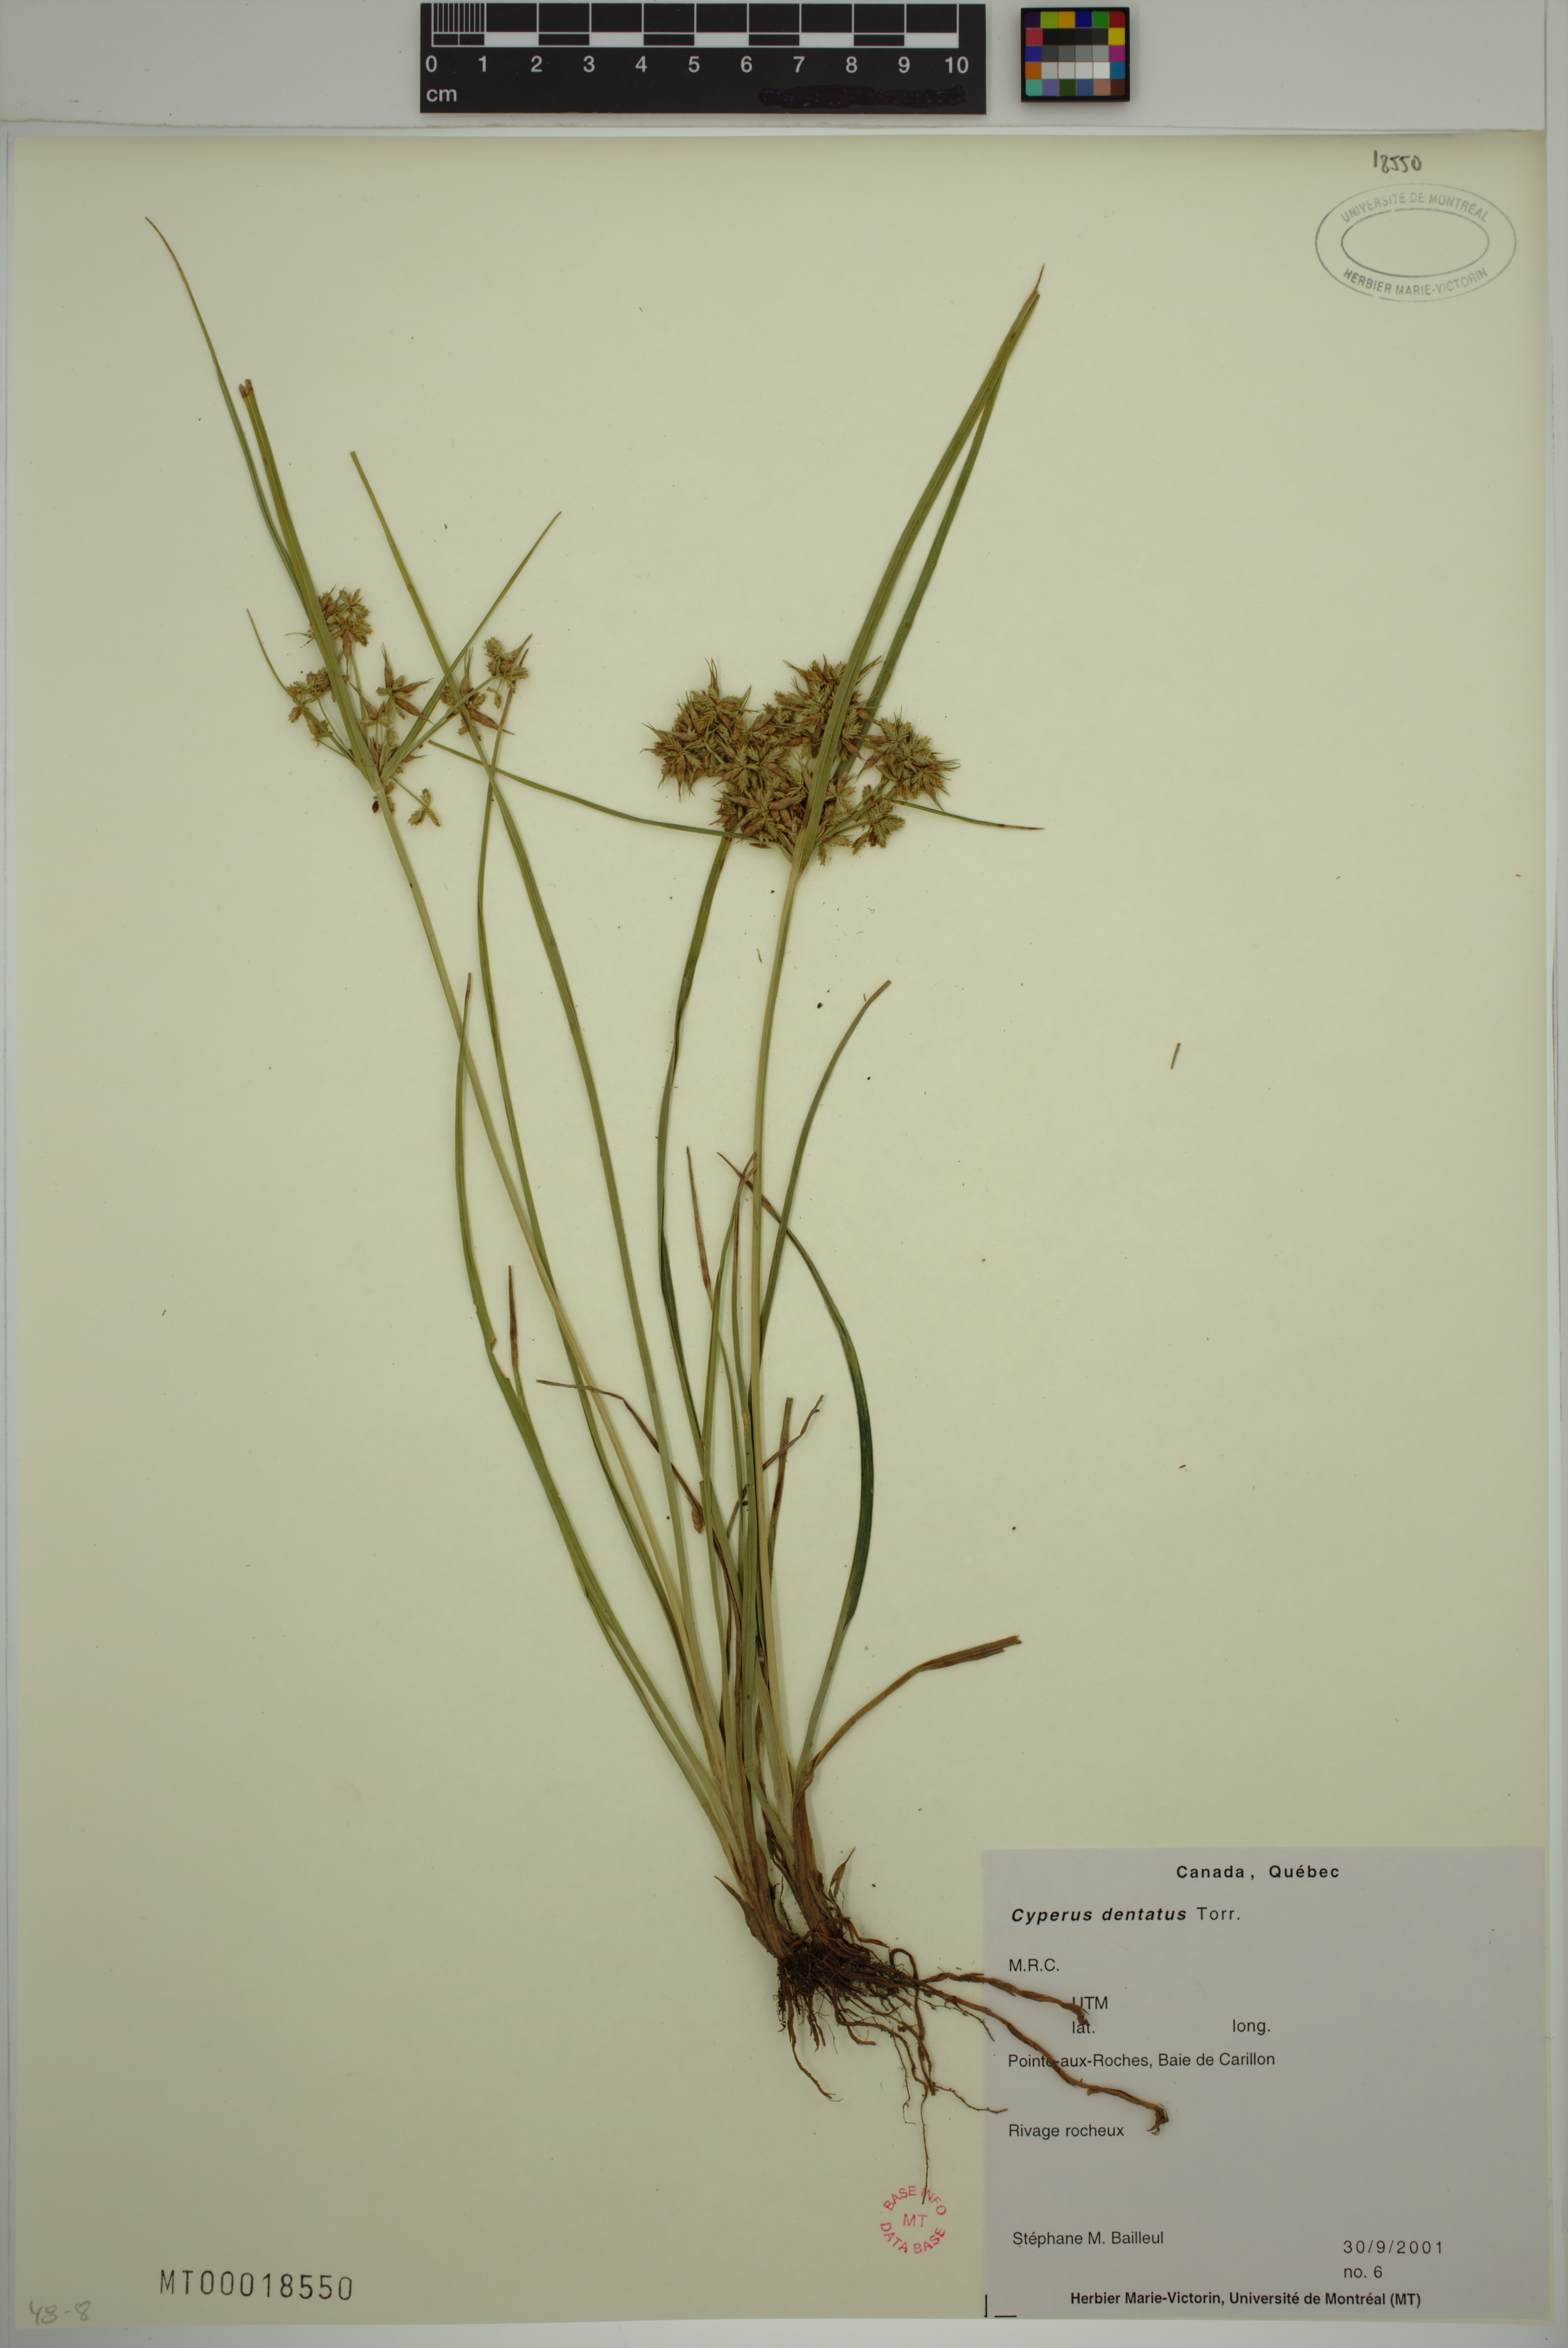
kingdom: Plantae
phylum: Tracheophyta
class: Liliopsida
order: Poales
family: Cyperaceae
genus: Cyperus
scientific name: Cyperus dentatus
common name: Dentate umbrella sedge
